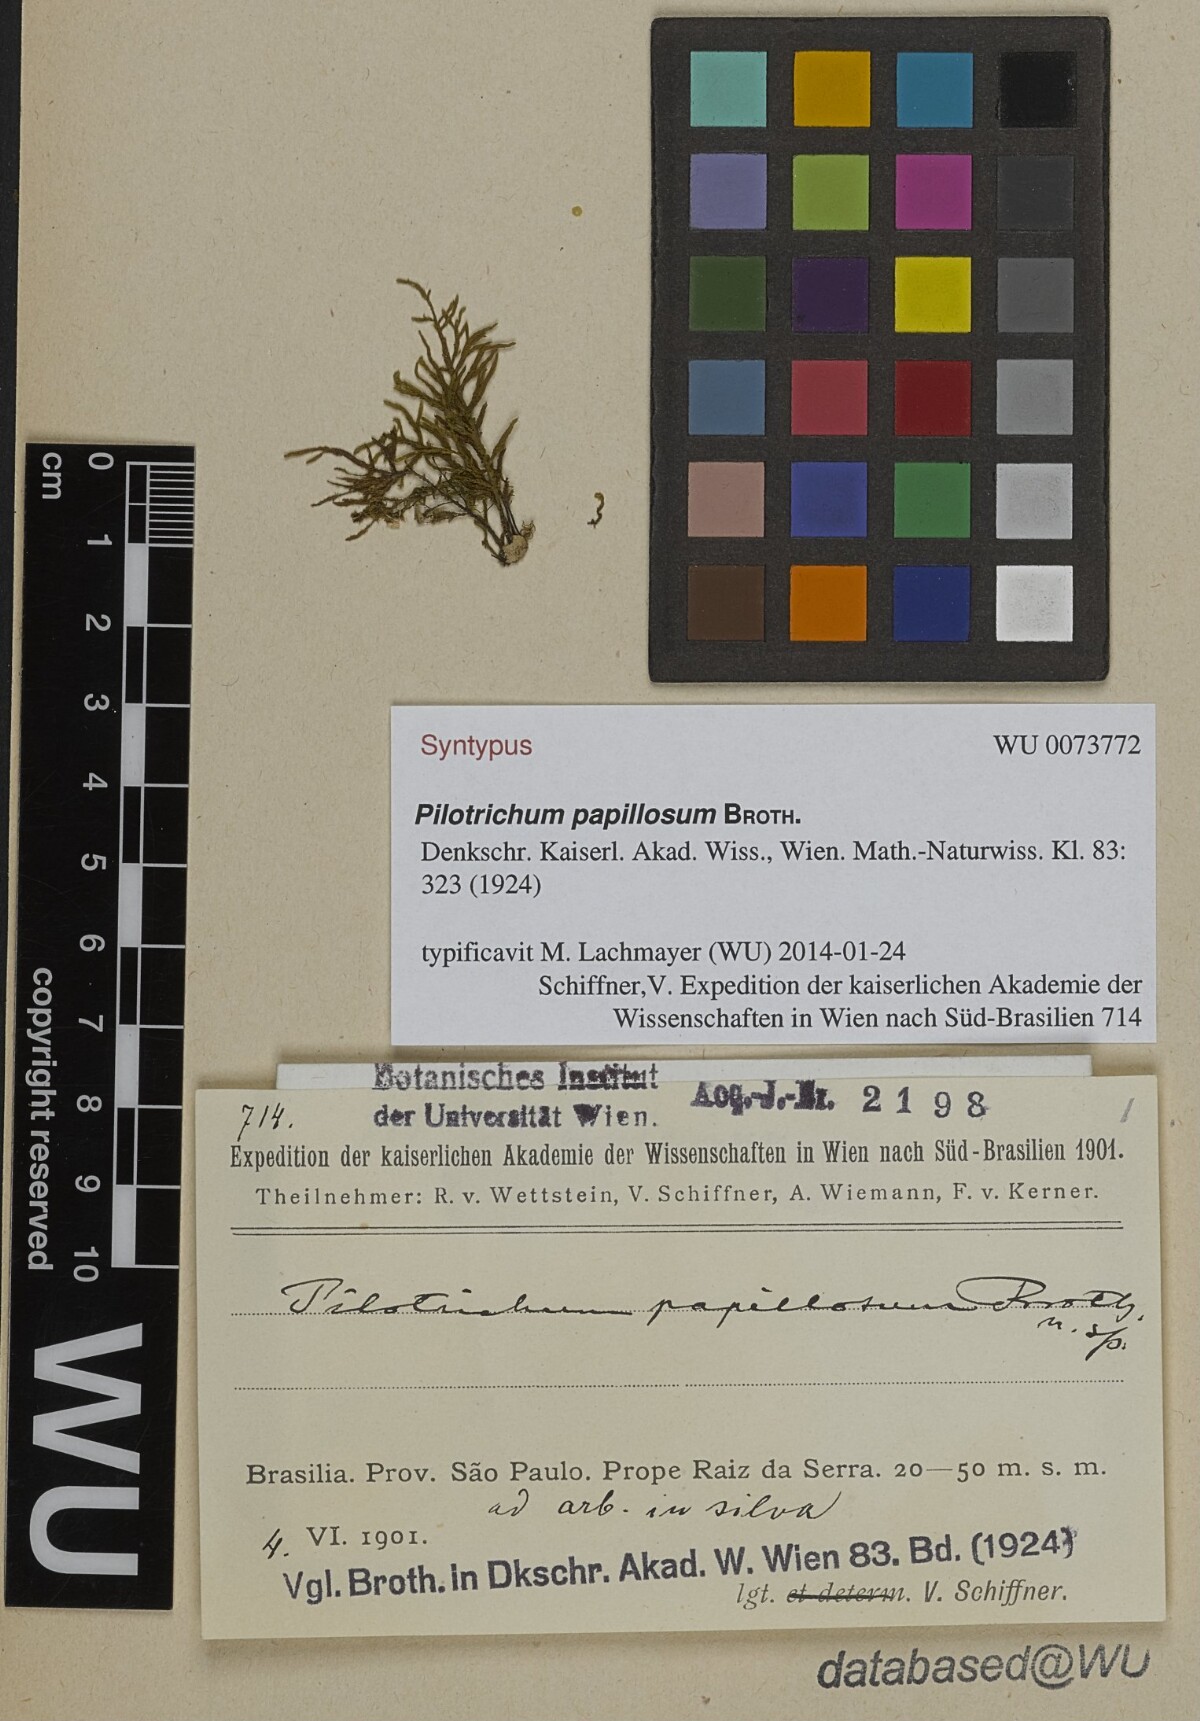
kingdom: Plantae
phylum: Bryophyta
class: Bryopsida
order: Hookeriales
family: Pilotrichaceae
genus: Pilotrichum
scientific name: Pilotrichum evanescens
